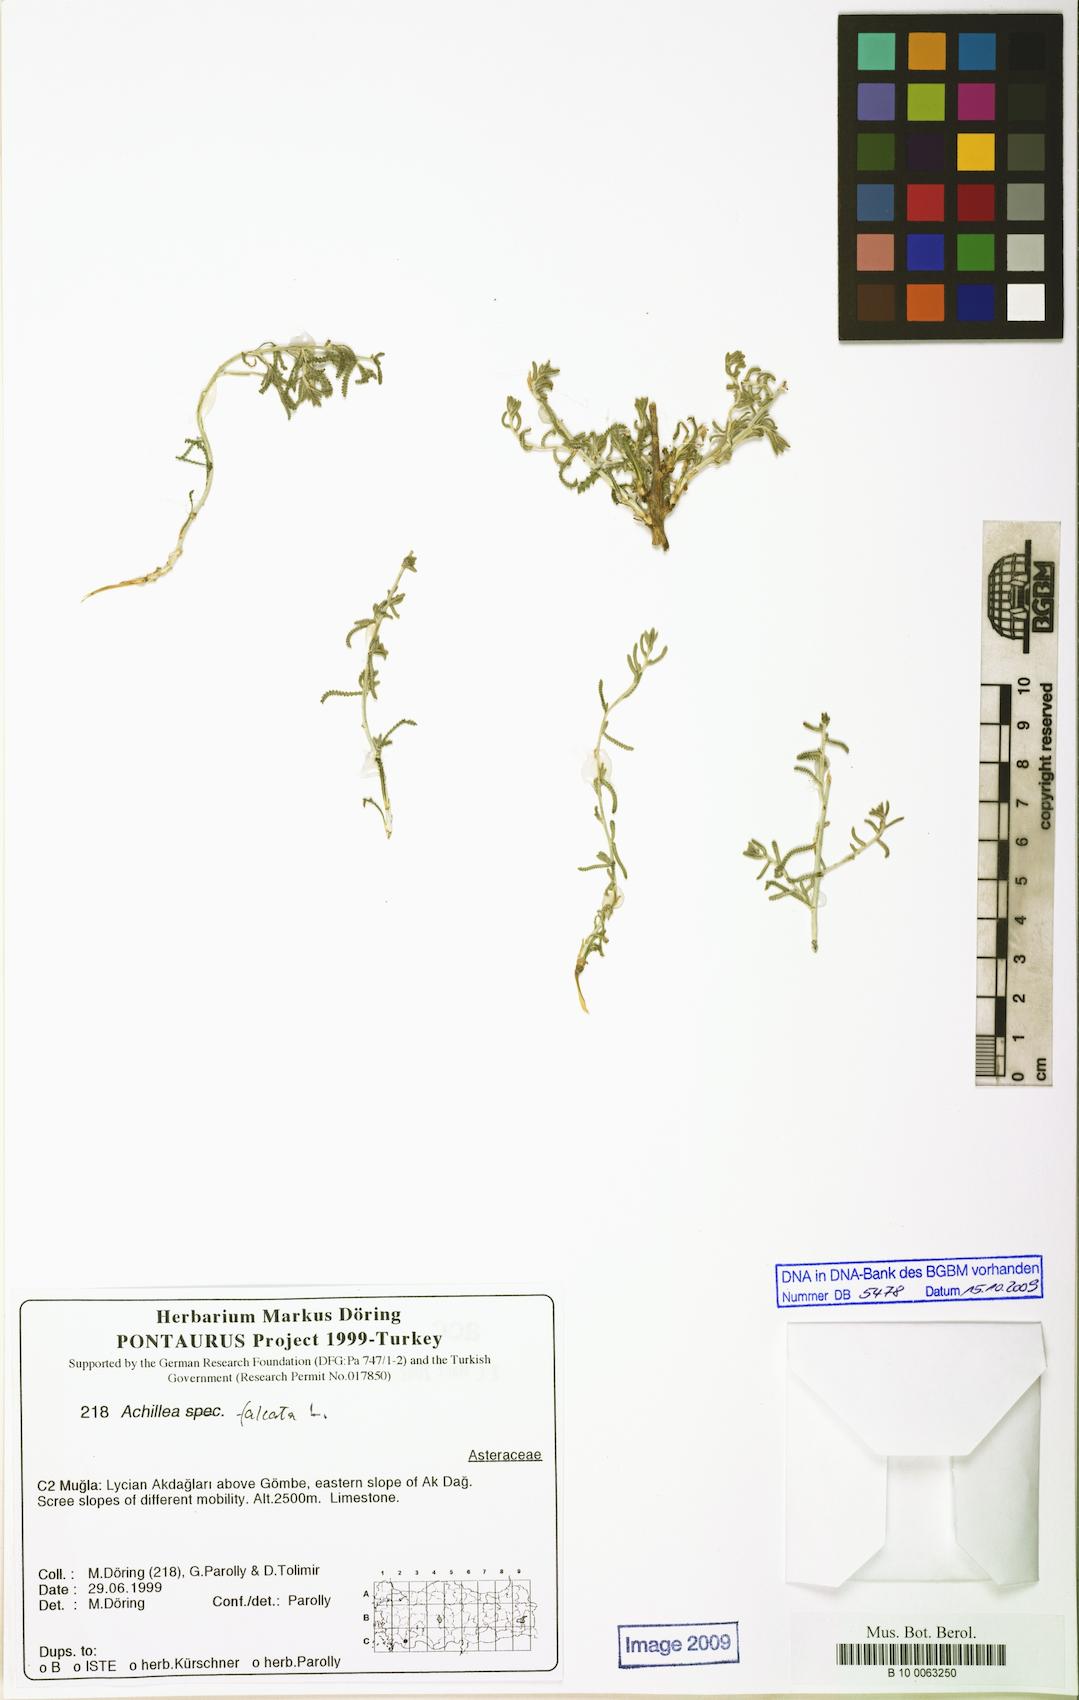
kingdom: Plantae
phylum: Tracheophyta
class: Magnoliopsida
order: Asterales
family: Asteraceae
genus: Achillea
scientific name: Achillea falcata
